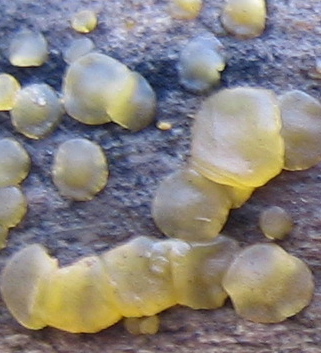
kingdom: Fungi
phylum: Basidiomycota
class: Dacrymycetes
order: Dacrymycetales
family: Dacrymycetaceae
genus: Dacrymyces
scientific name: Dacrymyces
